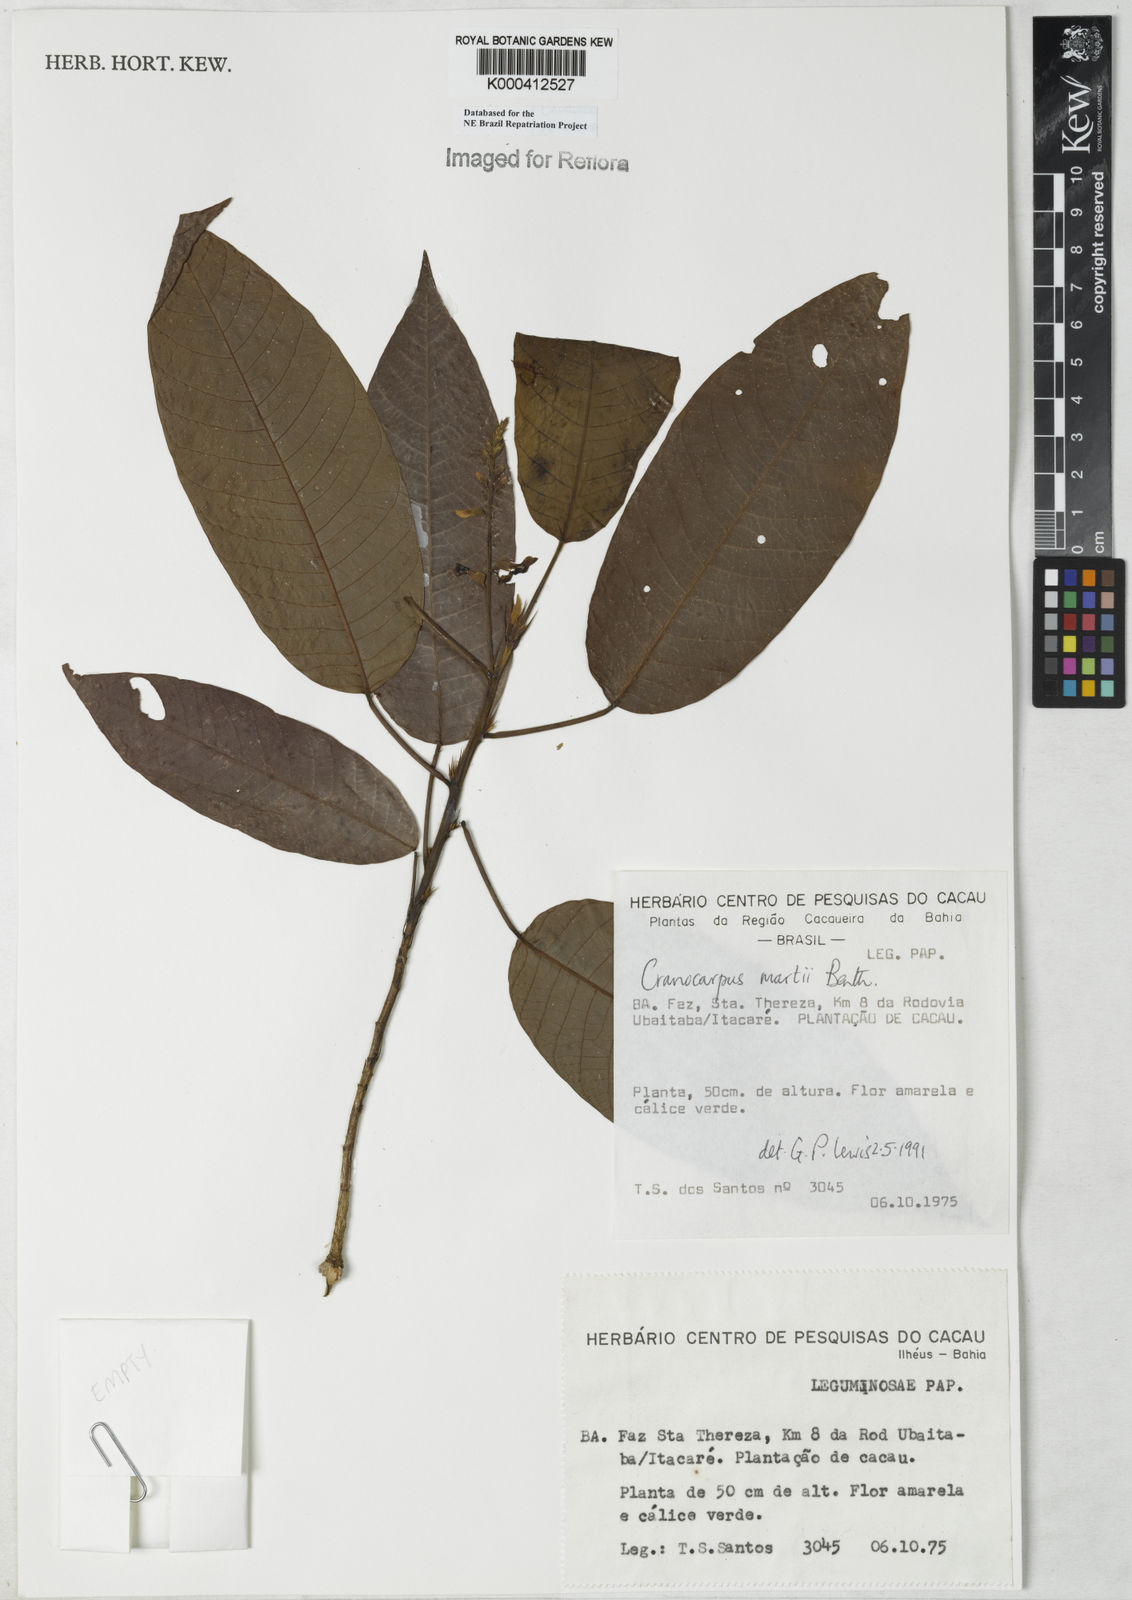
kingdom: Plantae
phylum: Tracheophyta
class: Magnoliopsida
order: Fabales
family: Fabaceae
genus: Cranocarpus
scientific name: Cranocarpus martii
